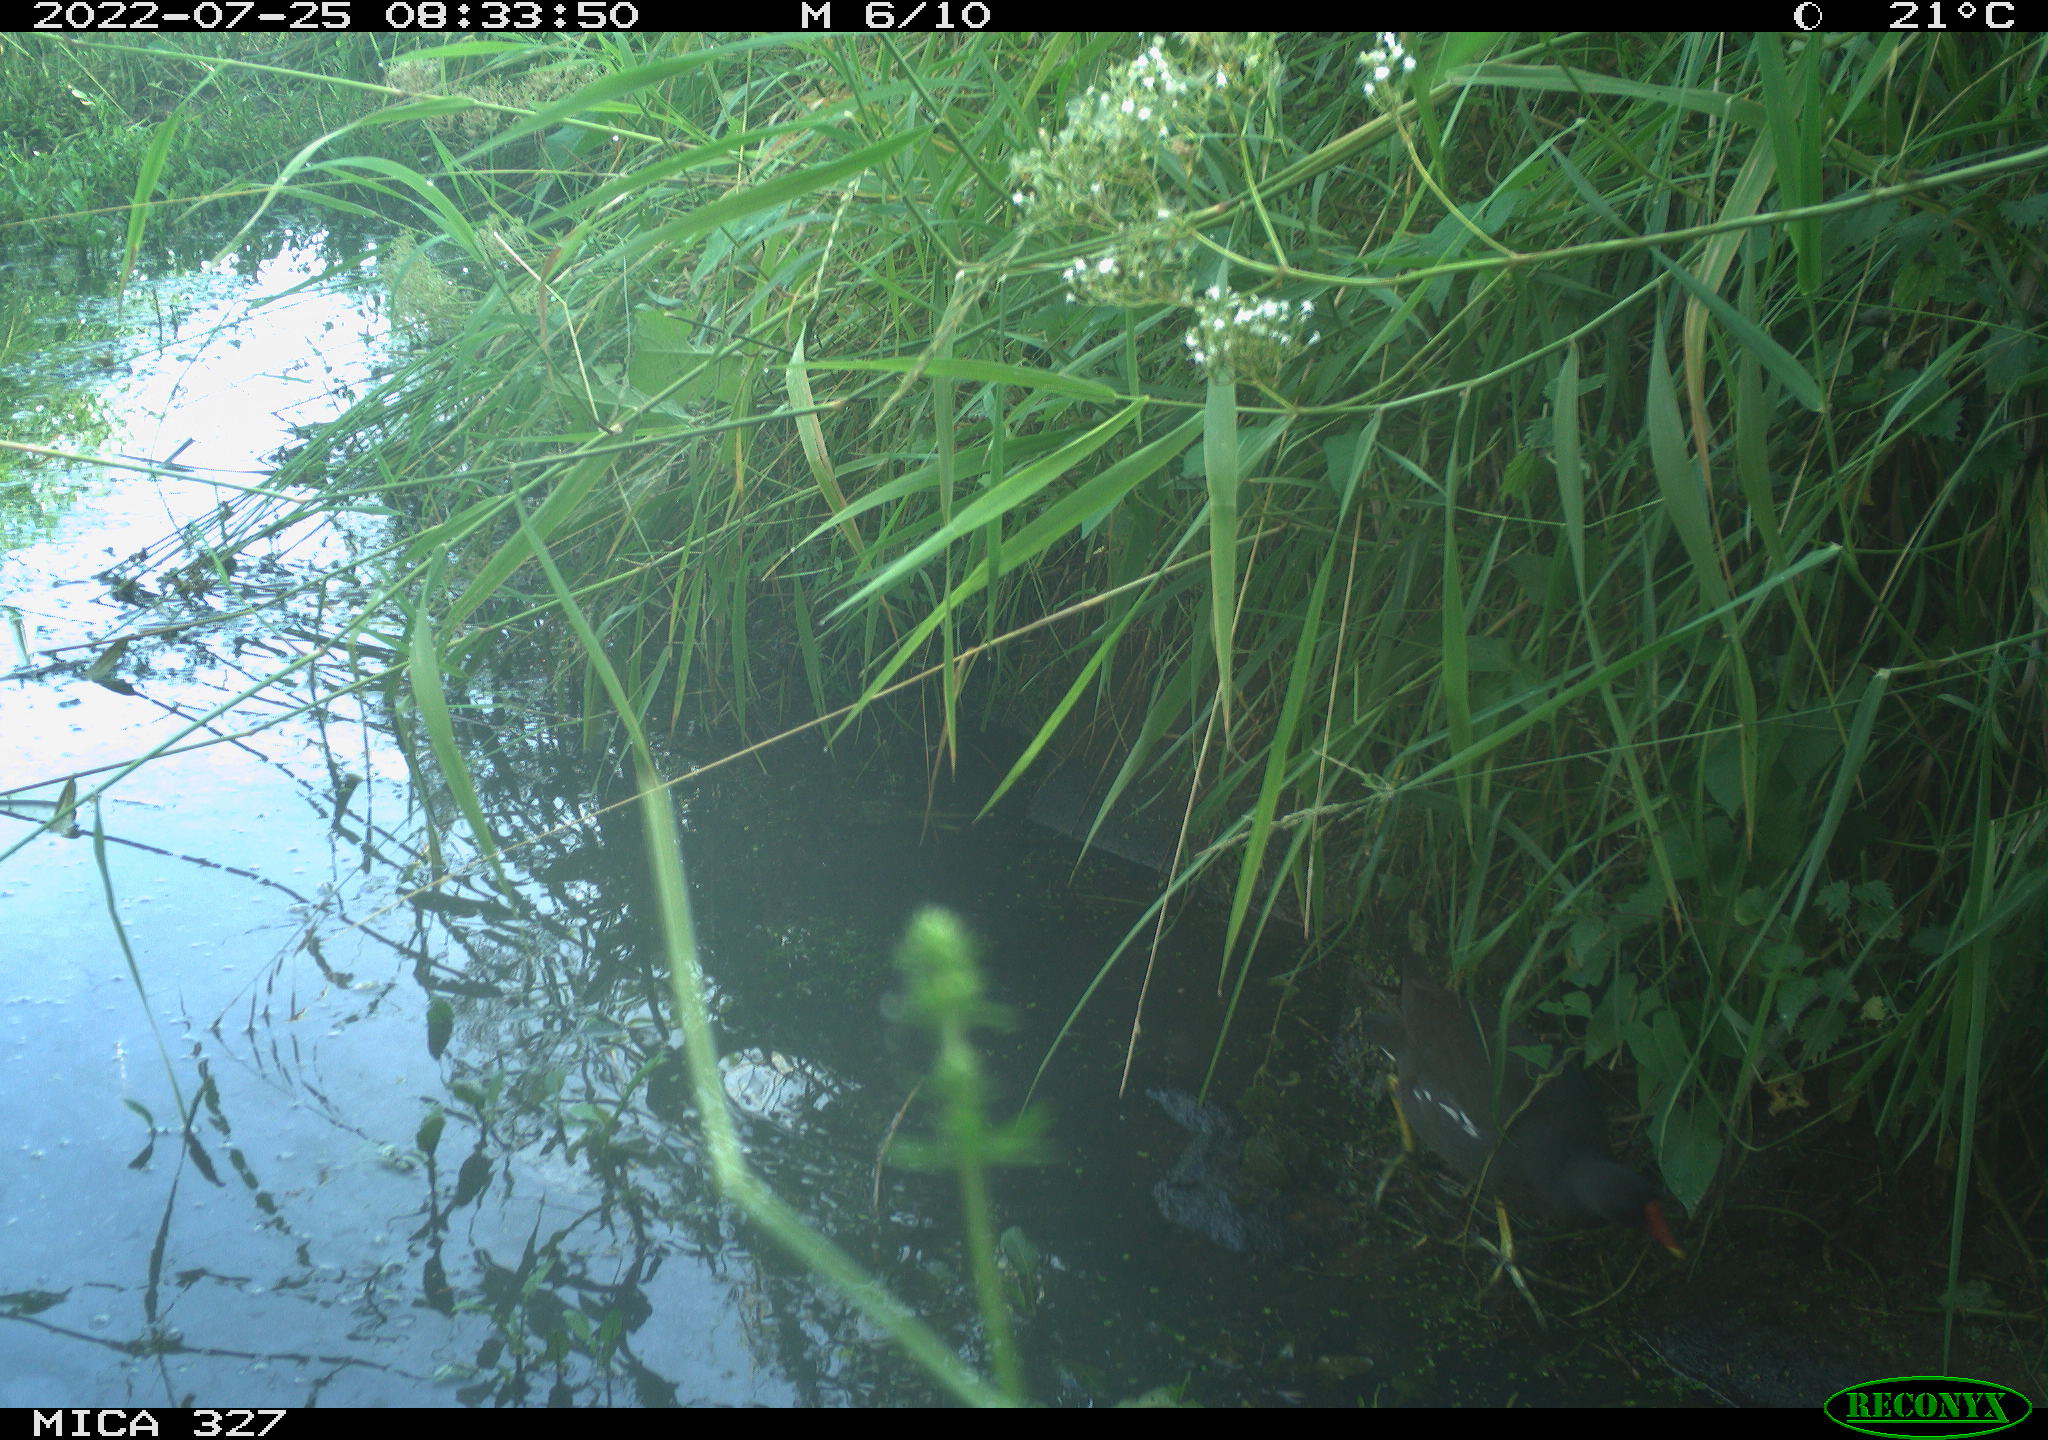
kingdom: Animalia
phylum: Chordata
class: Aves
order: Gruiformes
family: Rallidae
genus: Gallinula
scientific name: Gallinula chloropus
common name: Common moorhen
